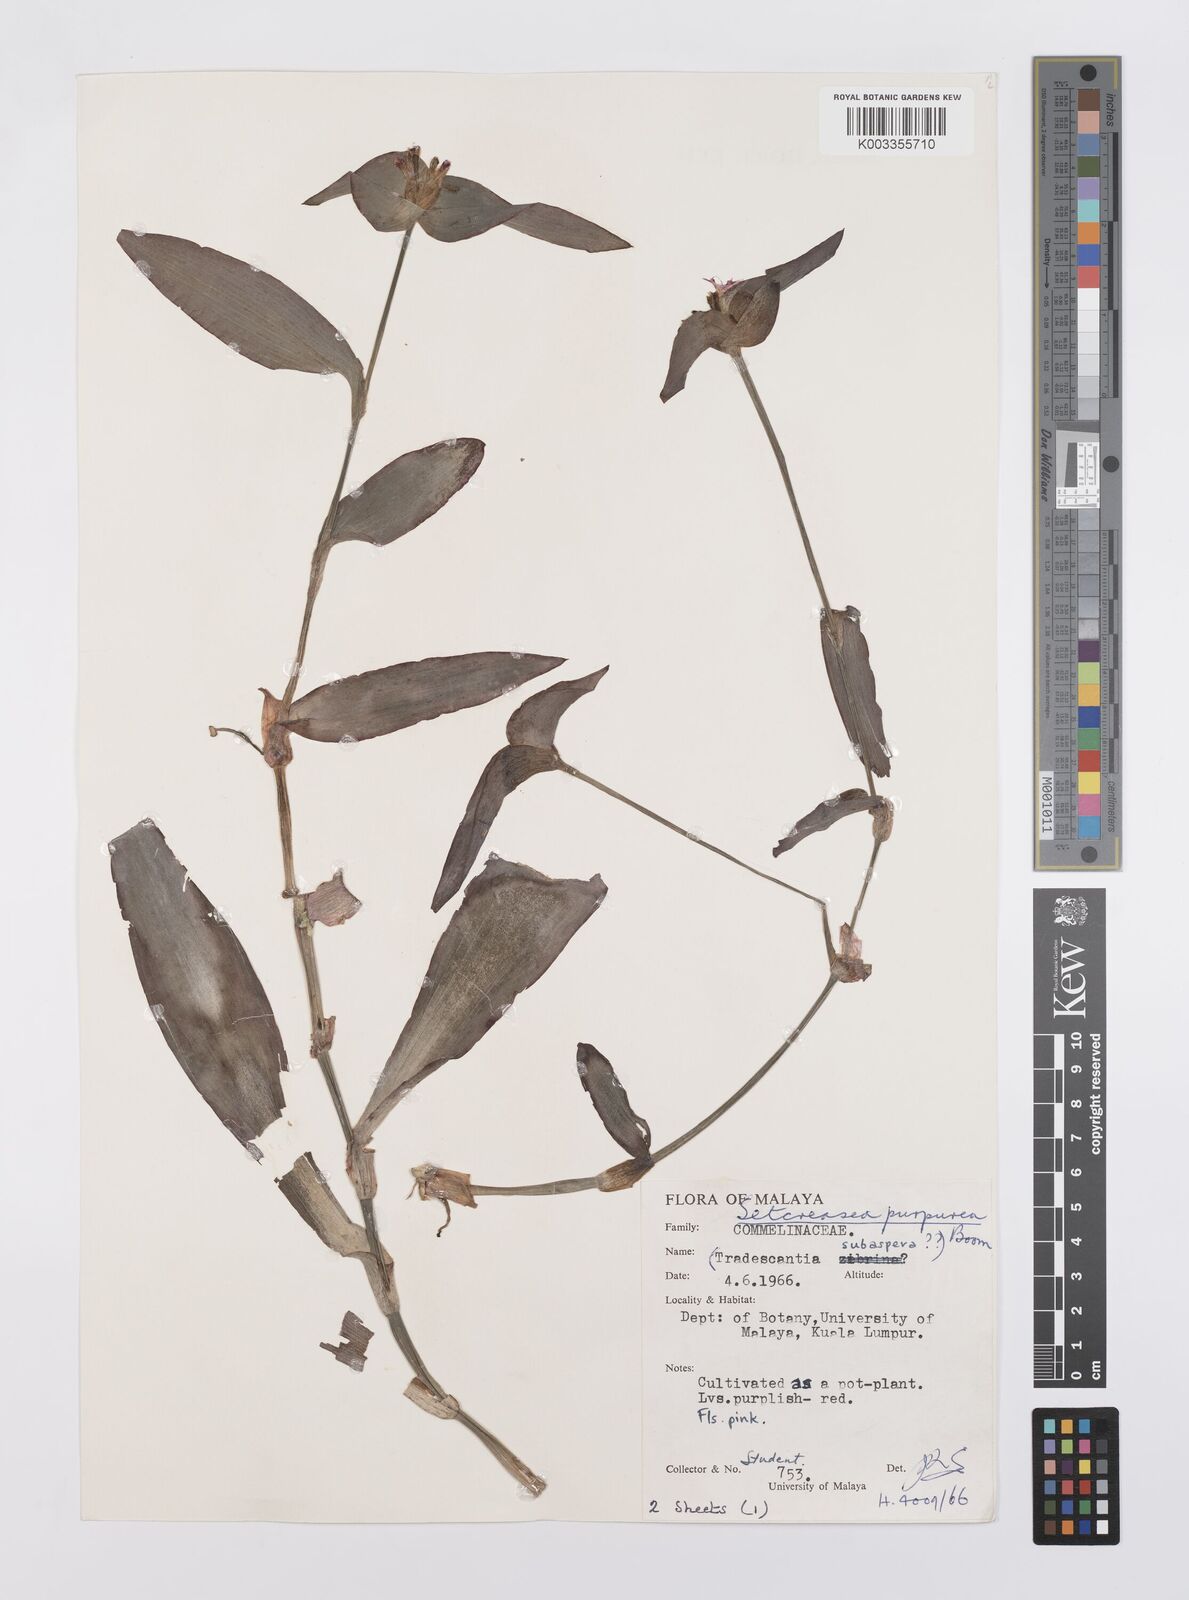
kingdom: Plantae
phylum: Tracheophyta
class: Liliopsida
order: Commelinales
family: Commelinaceae
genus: Callisia
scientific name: Callisia purpurascens
